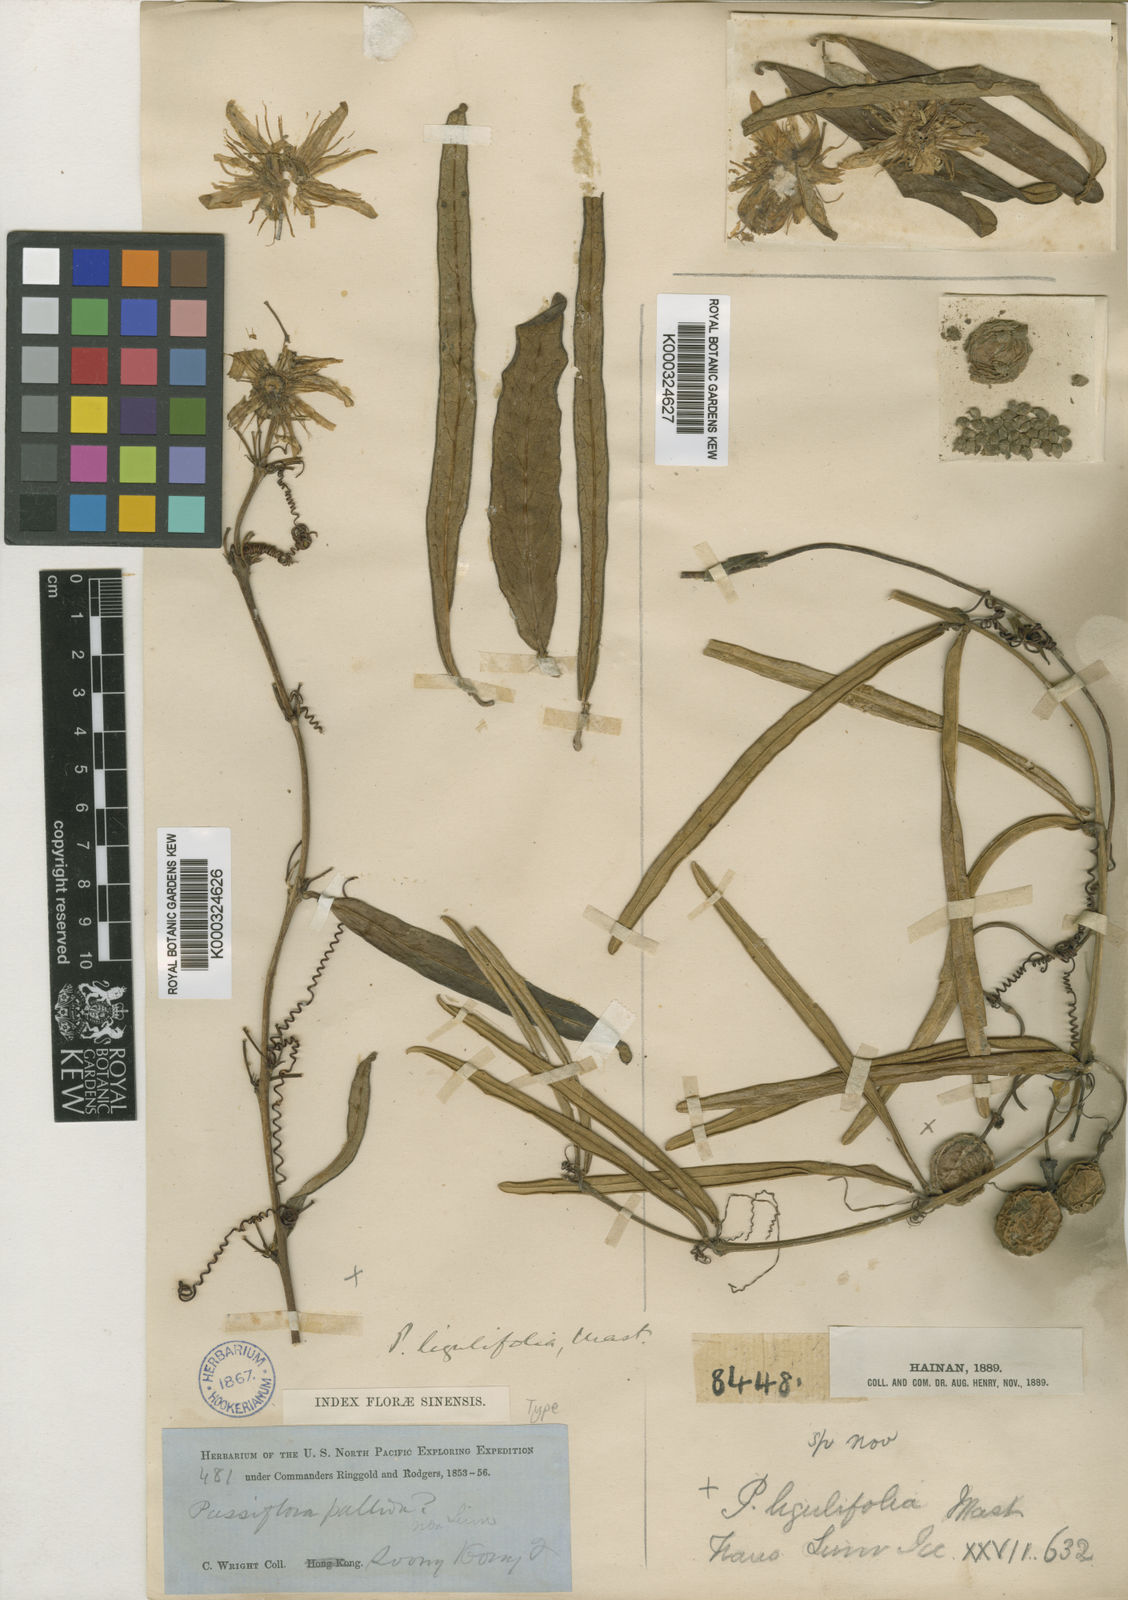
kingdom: Plantae
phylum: Tracheophyta
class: Magnoliopsida
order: Malpighiales
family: Passifloraceae
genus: Passiflora
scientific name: Passiflora cochinchinensis
